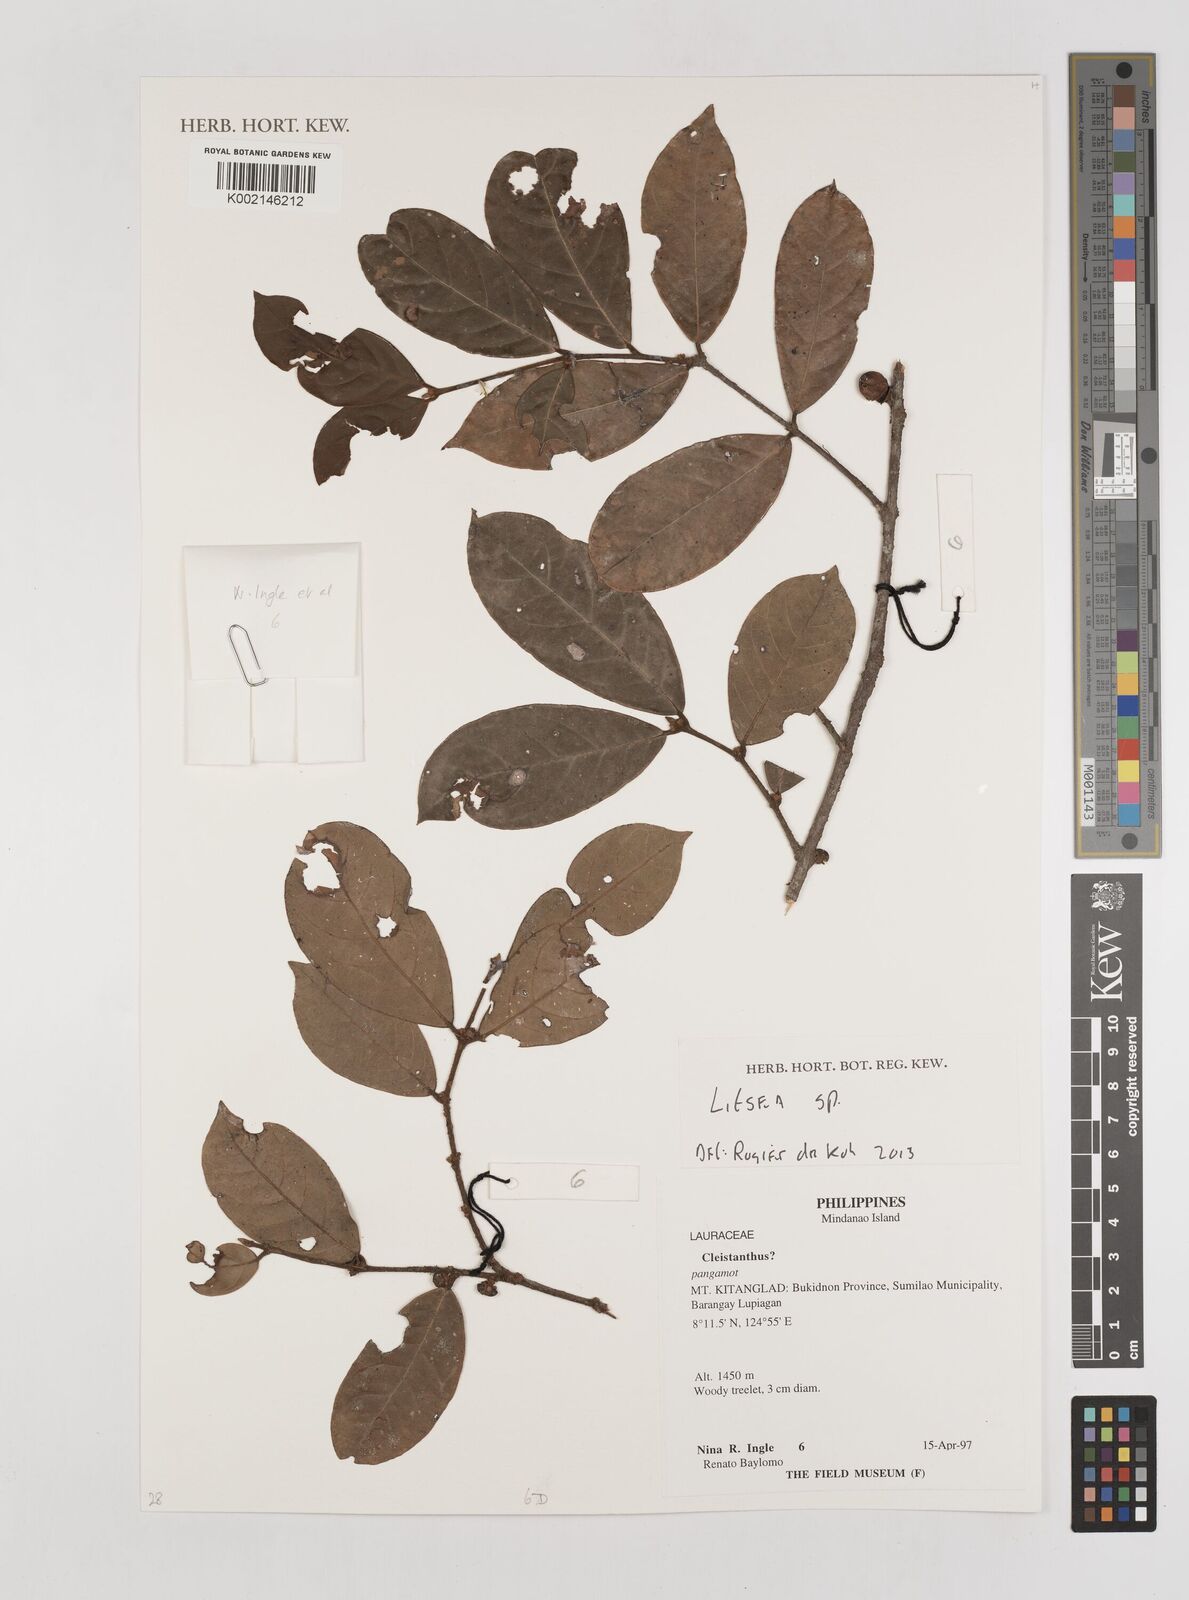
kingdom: Plantae
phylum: Tracheophyta
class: Magnoliopsida
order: Laurales
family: Lauraceae
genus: Litsea
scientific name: Litsea
